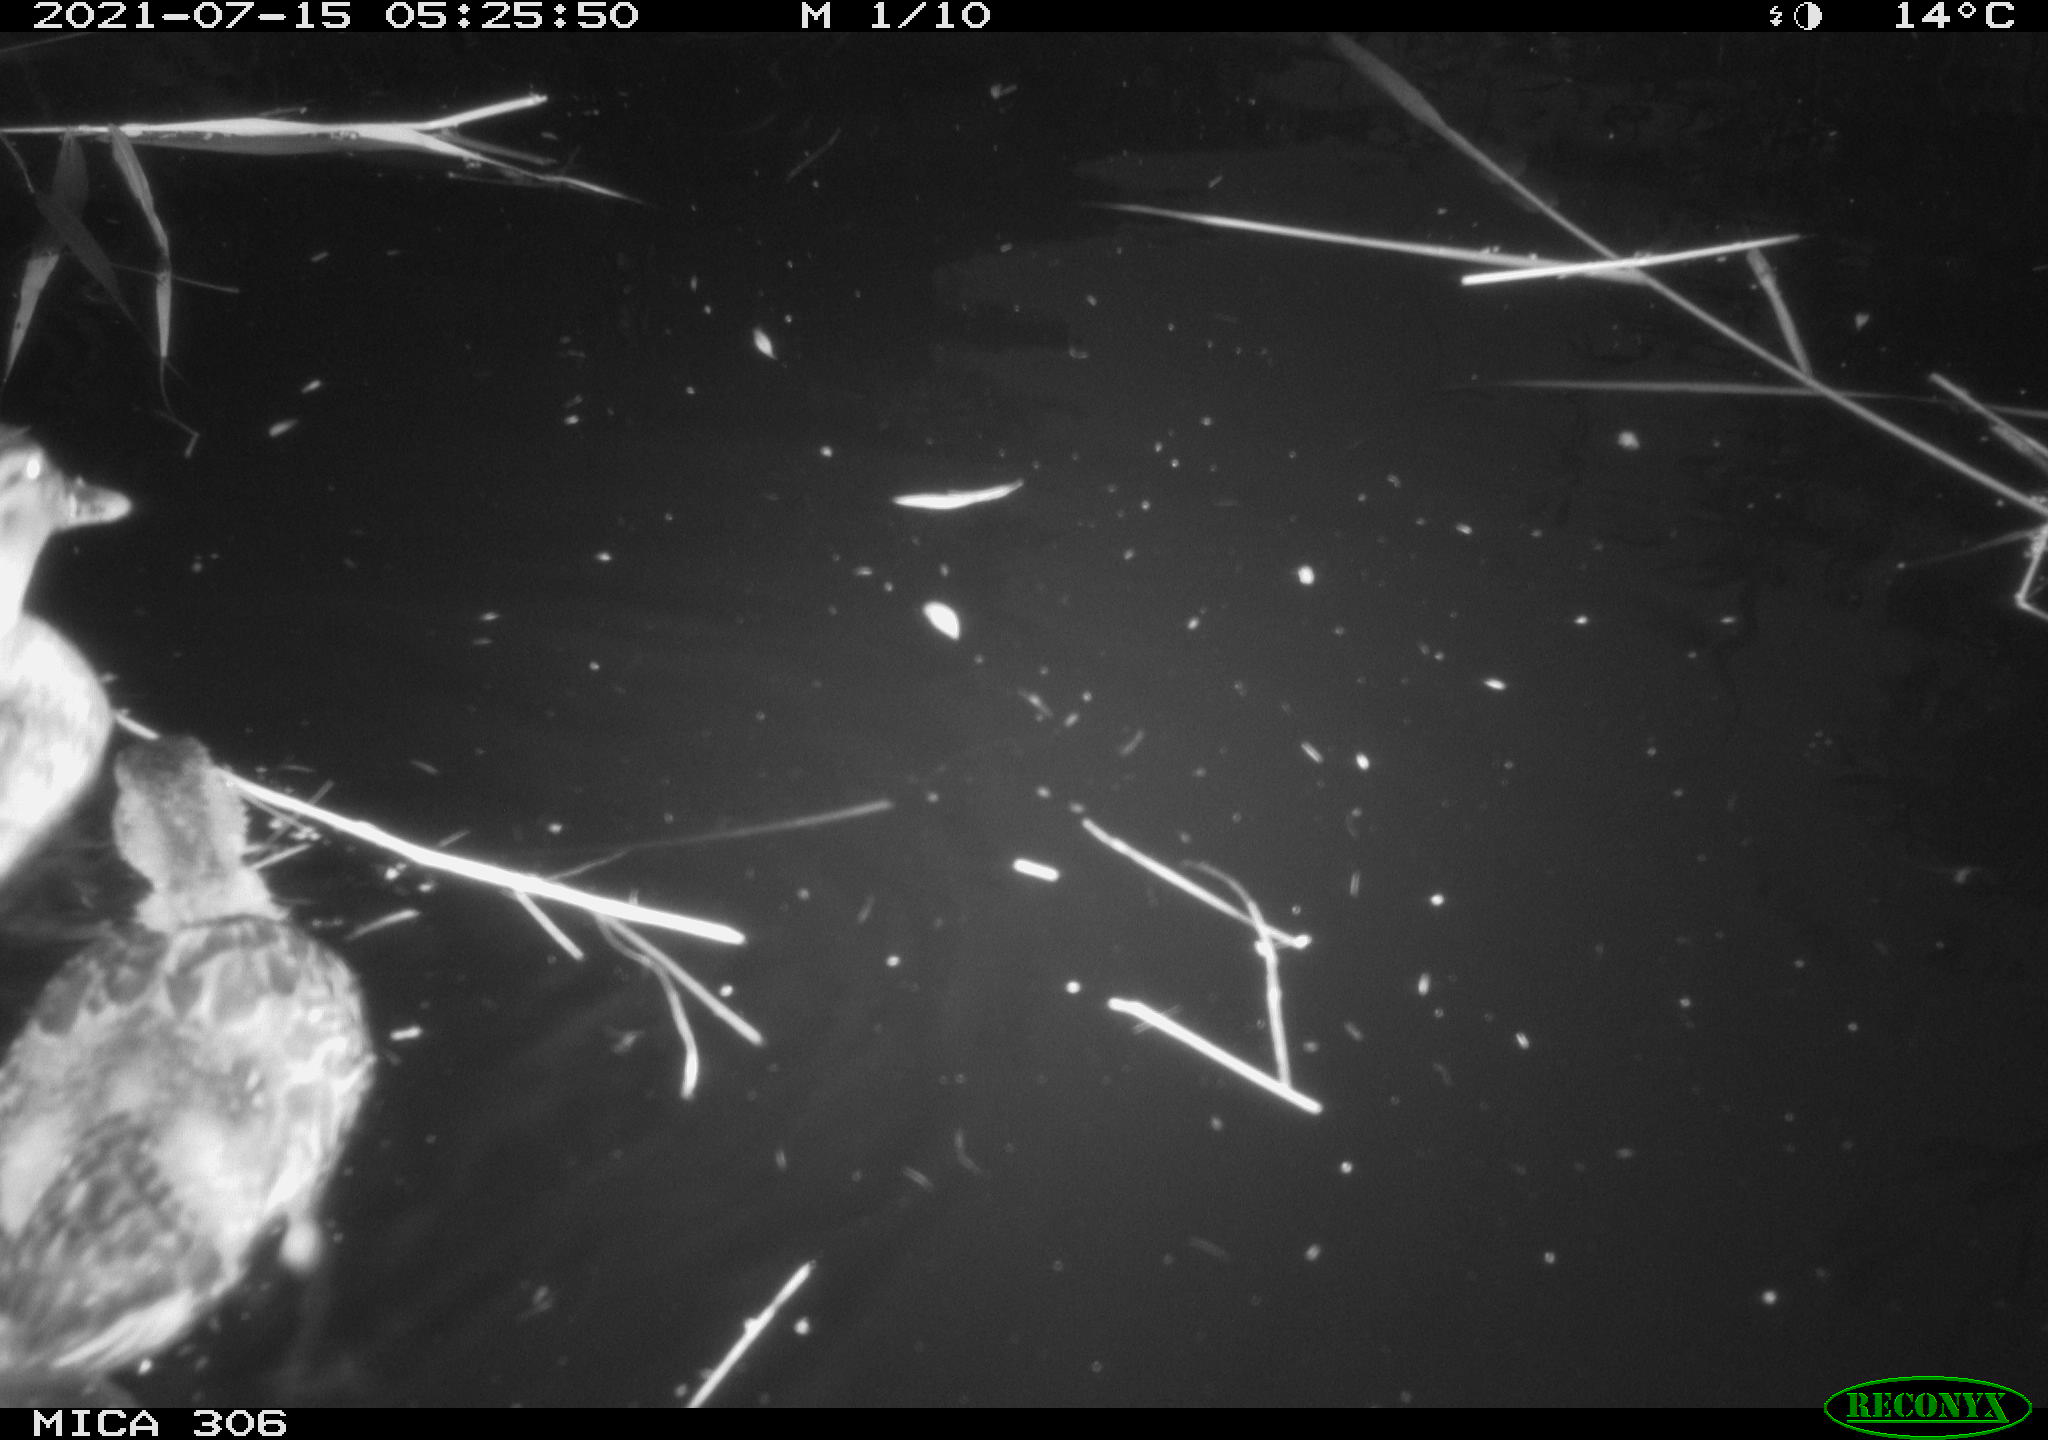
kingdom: Animalia
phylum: Chordata
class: Aves
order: Anseriformes
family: Anatidae
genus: Anas
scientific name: Anas
